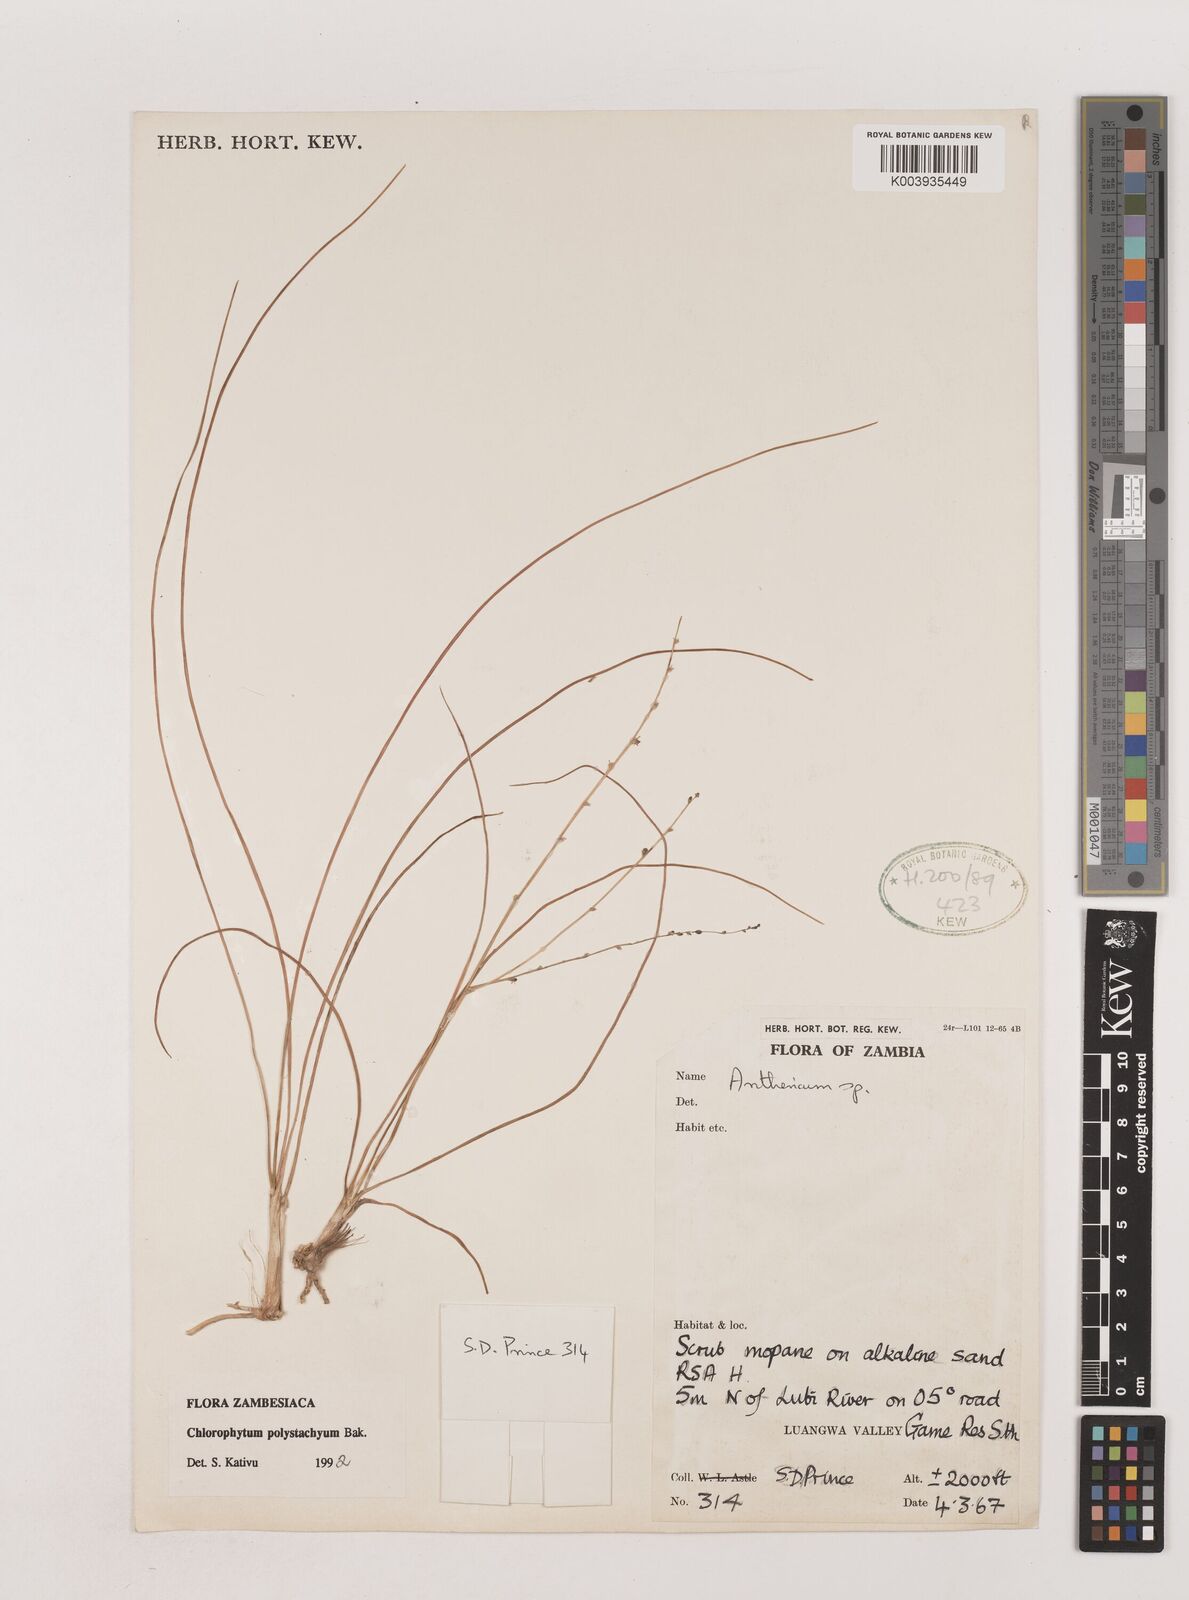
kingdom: Plantae
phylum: Tracheophyta
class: Liliopsida
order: Asparagales
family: Asparagaceae
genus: Chlorophytum
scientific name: Chlorophytum polystachys
